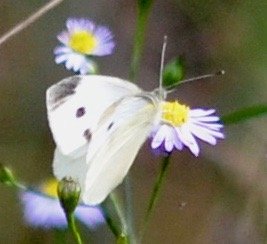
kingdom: Animalia
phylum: Arthropoda
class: Insecta
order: Lepidoptera
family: Pieridae
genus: Pieris
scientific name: Pieris rapae
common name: Cabbage White
